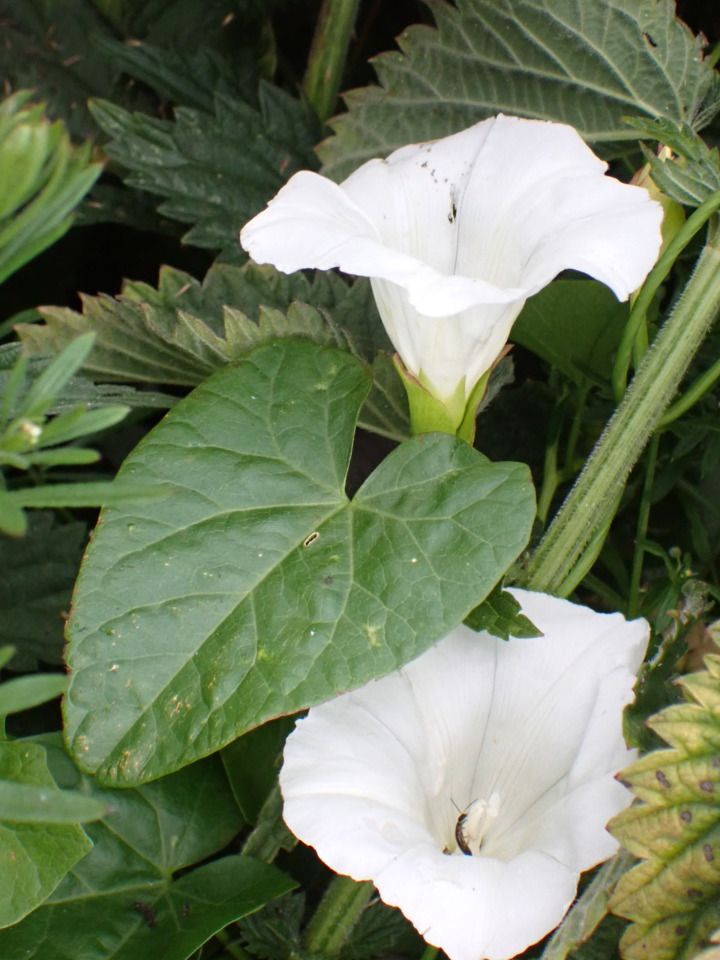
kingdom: Plantae
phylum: Tracheophyta
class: Magnoliopsida
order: Solanales
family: Convolvulaceae
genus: Calystegia
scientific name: Calystegia sepium
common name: Gærde-snerle
